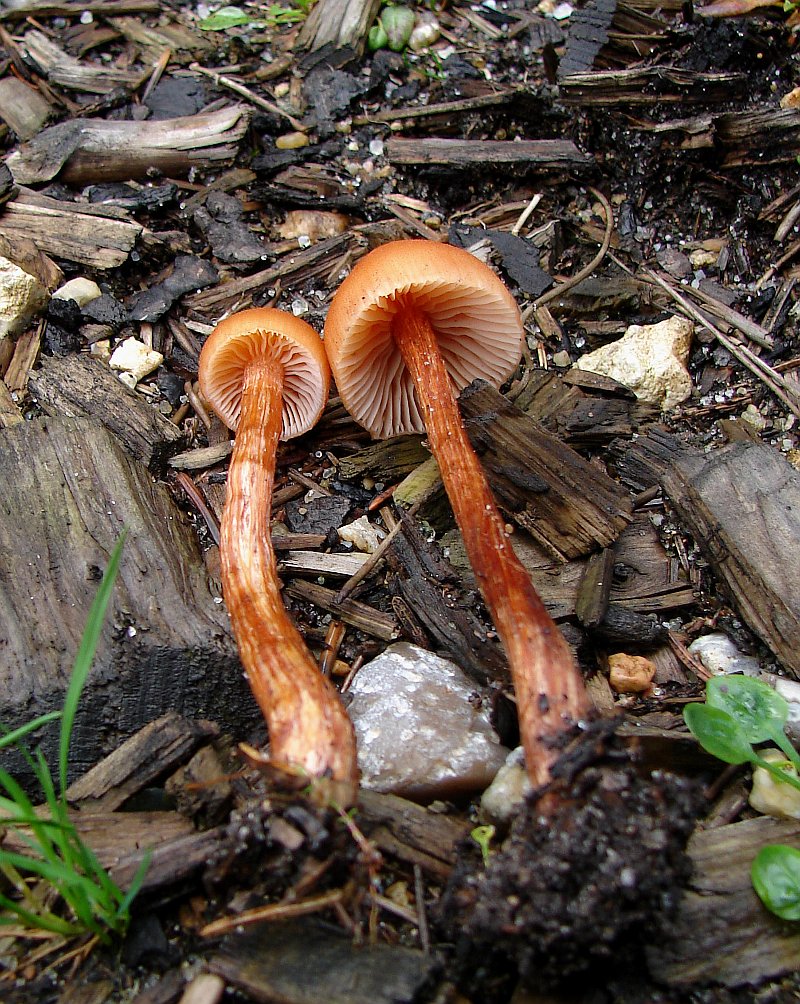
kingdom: Fungi
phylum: Basidiomycota
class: Agaricomycetes
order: Agaricales
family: Hydnangiaceae
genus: Laccaria
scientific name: Laccaria proxima
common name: stor ametysthat
